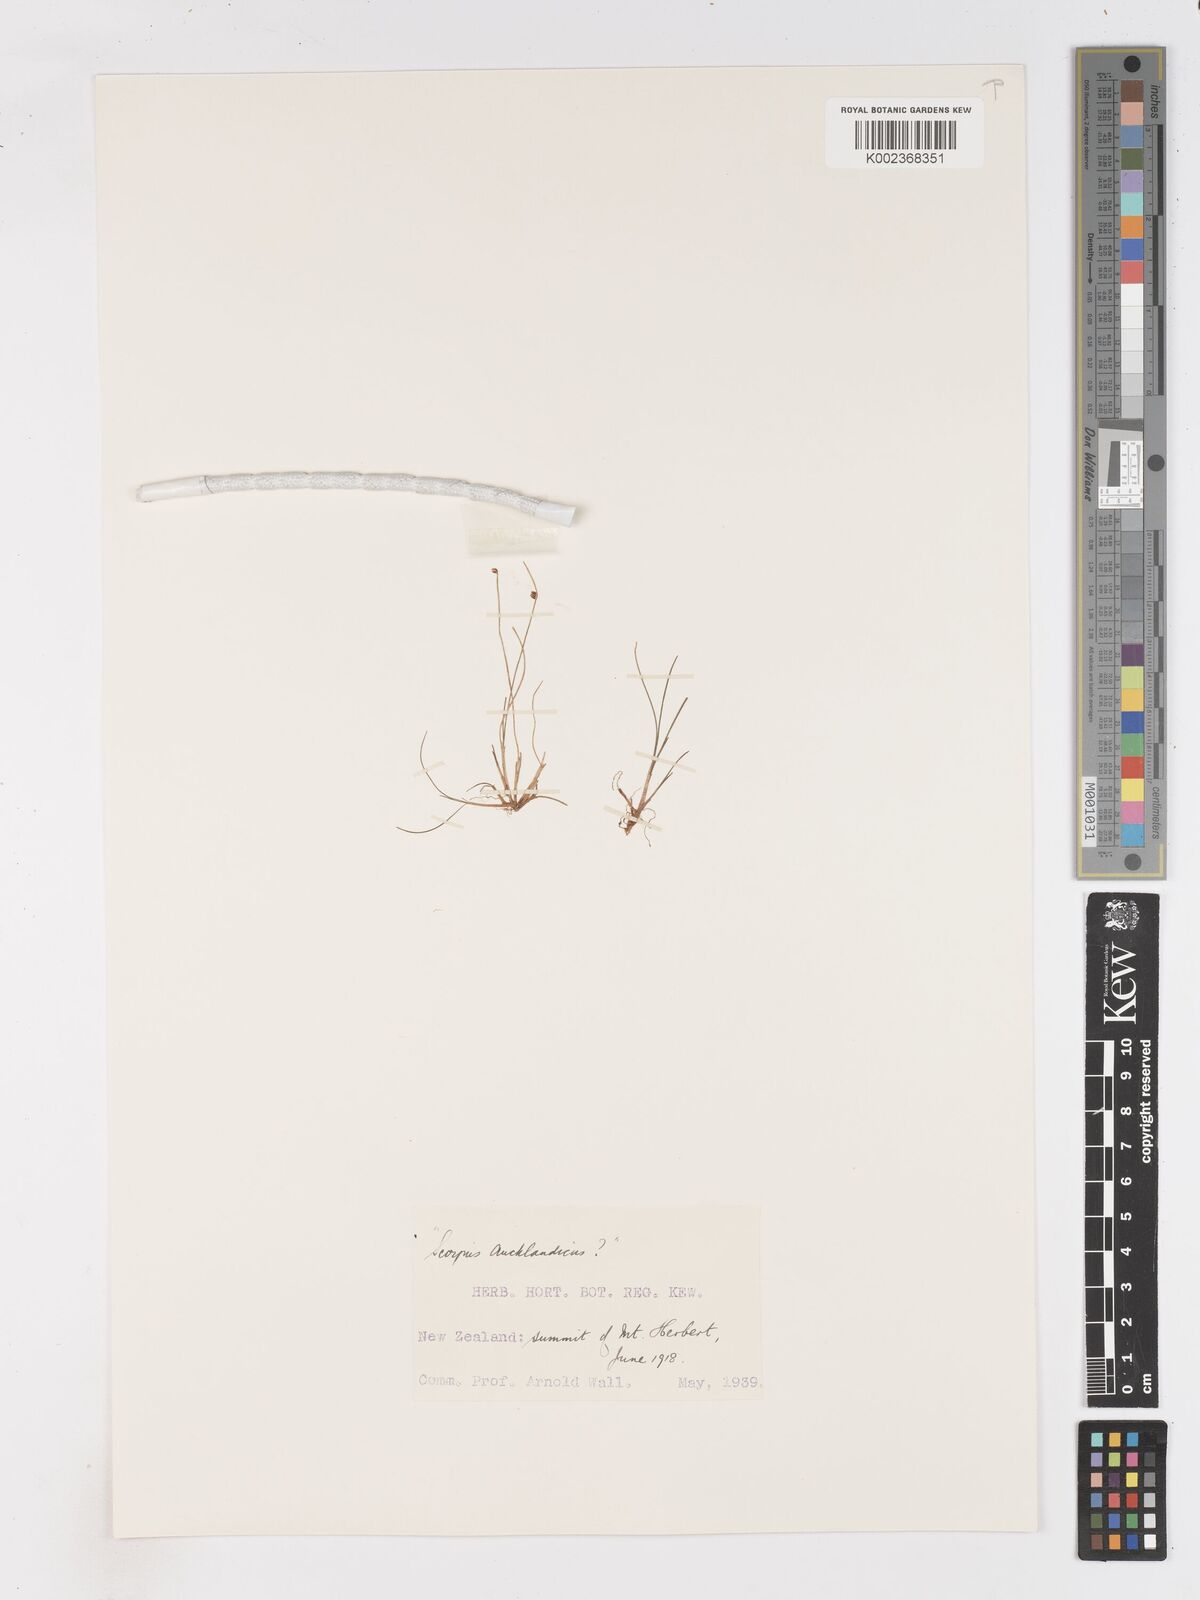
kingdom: Plantae
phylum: Tracheophyta
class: Liliopsida
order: Poales
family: Cyperaceae
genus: Isolepis
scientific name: Isolepis aucklandica
